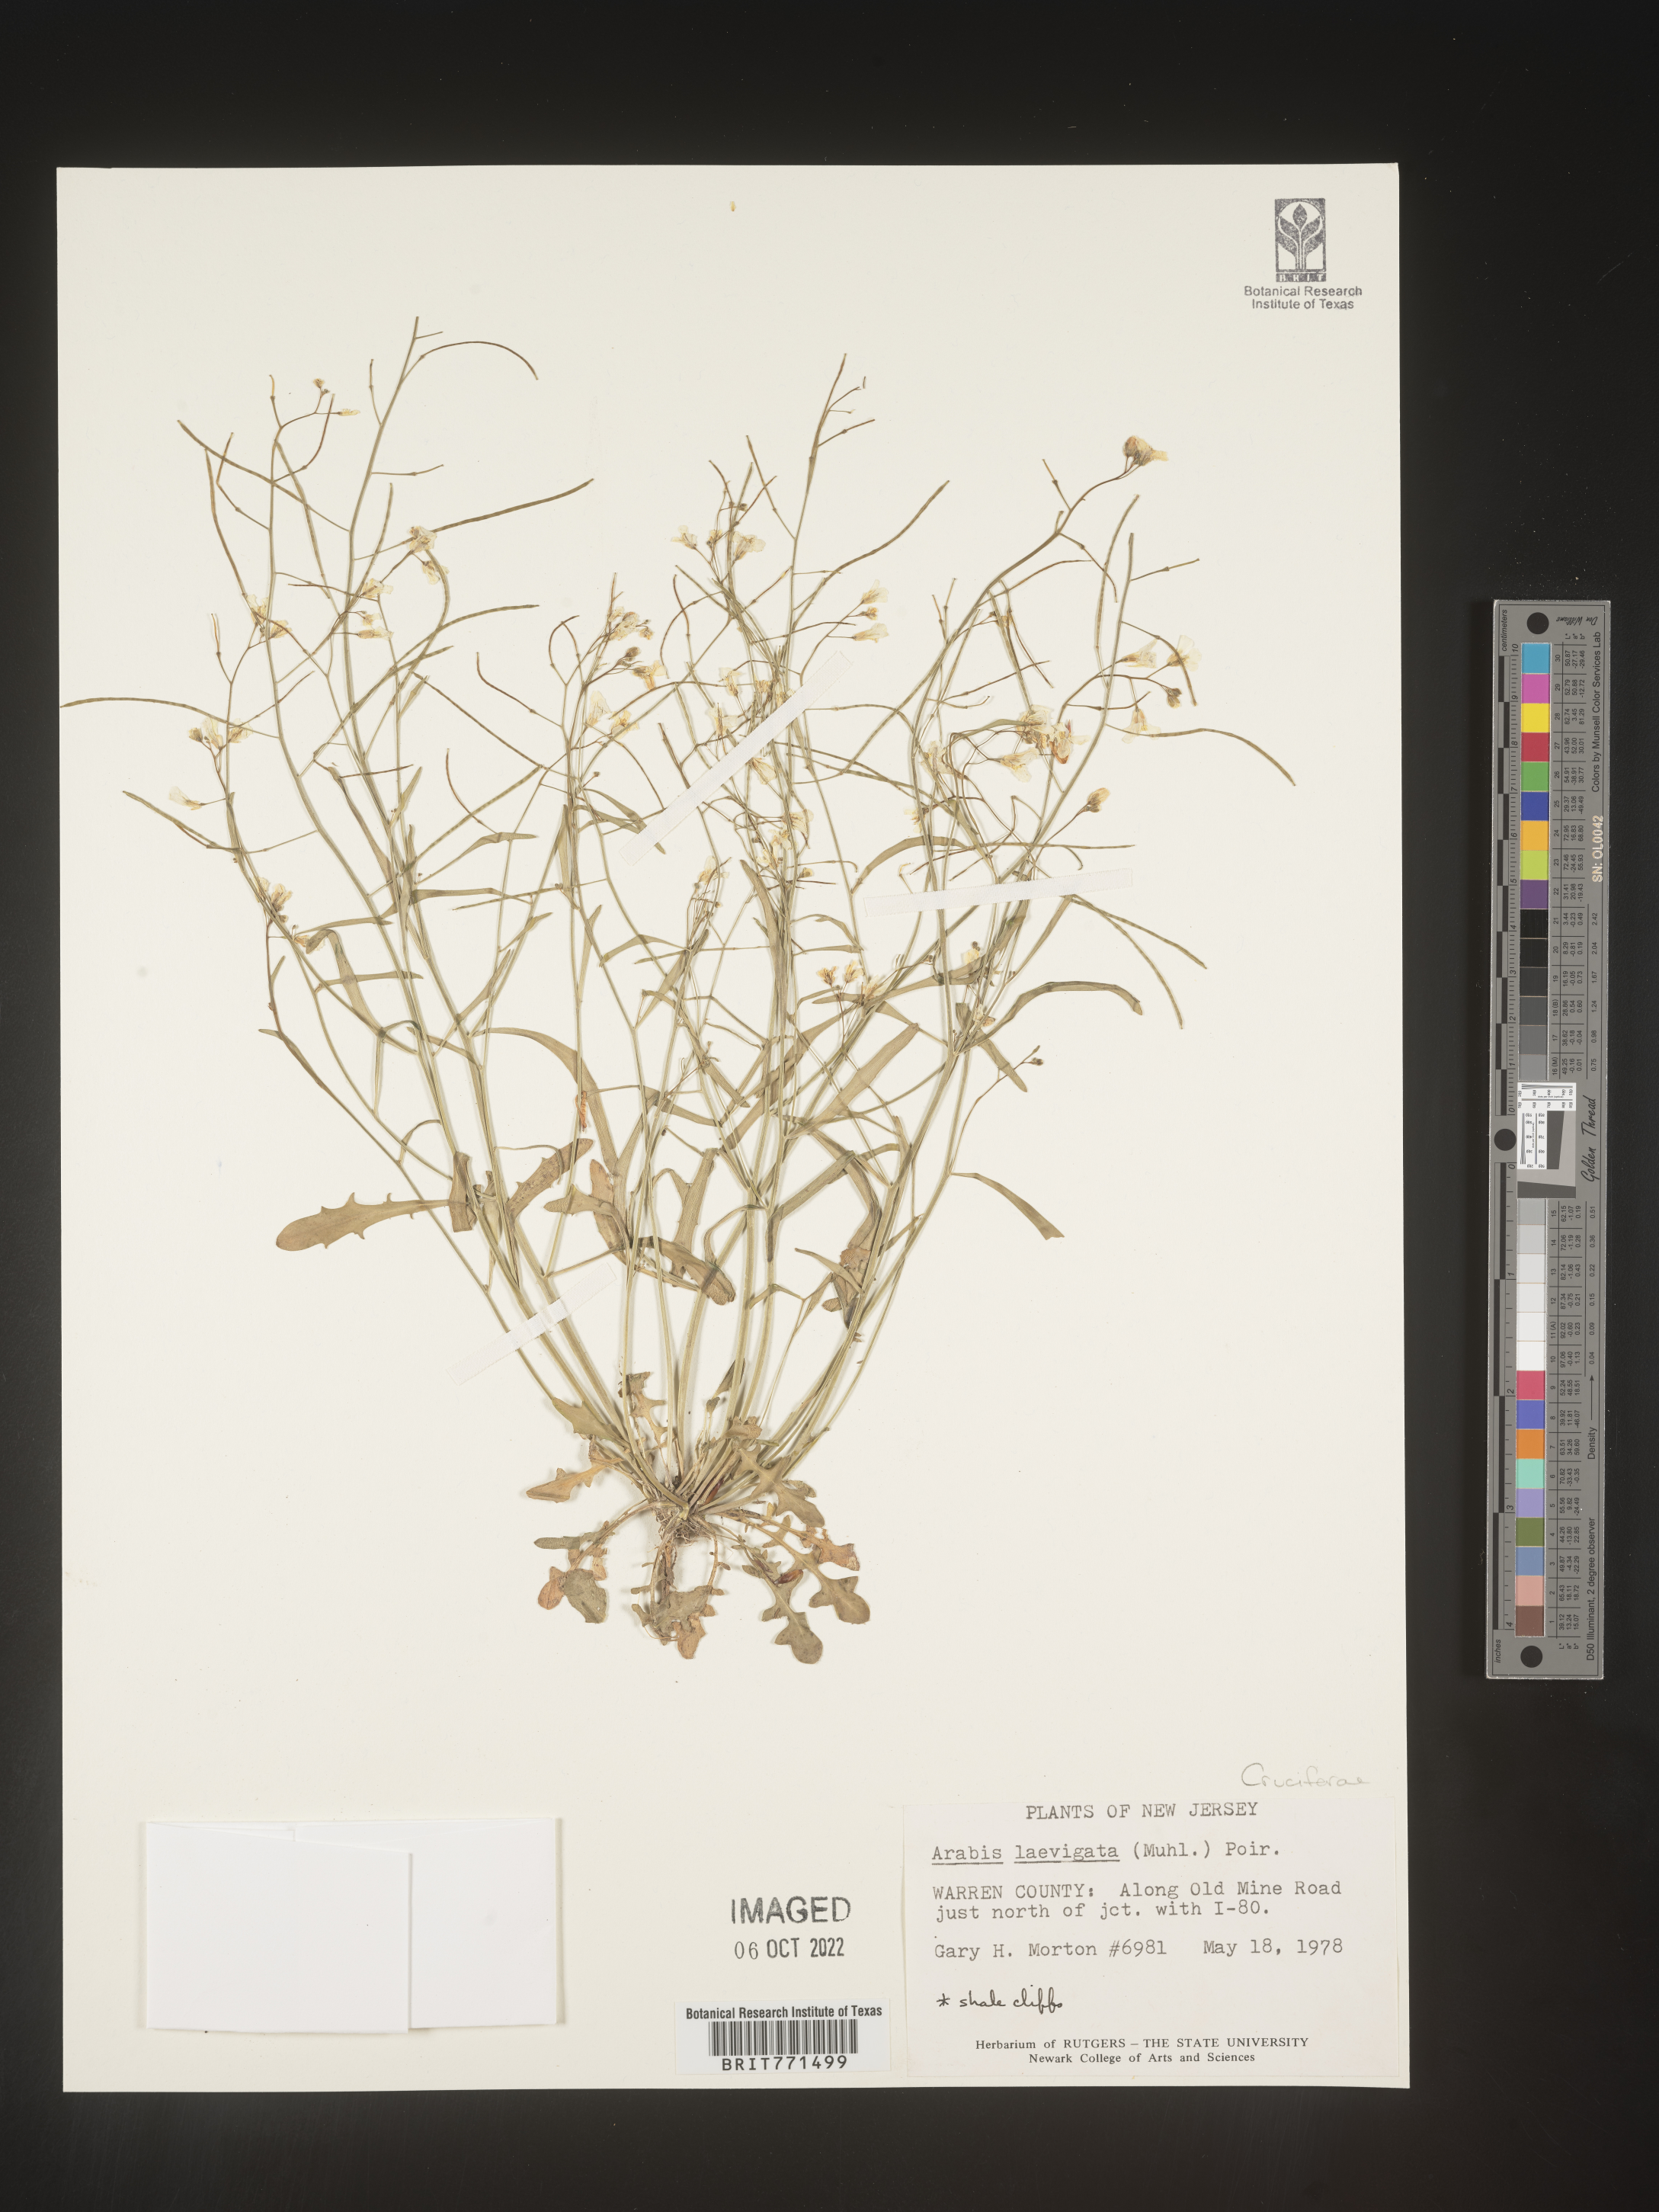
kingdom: Plantae
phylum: Tracheophyta
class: Magnoliopsida
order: Brassicales
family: Brassicaceae
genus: Arabis
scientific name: Arabis laevigata
